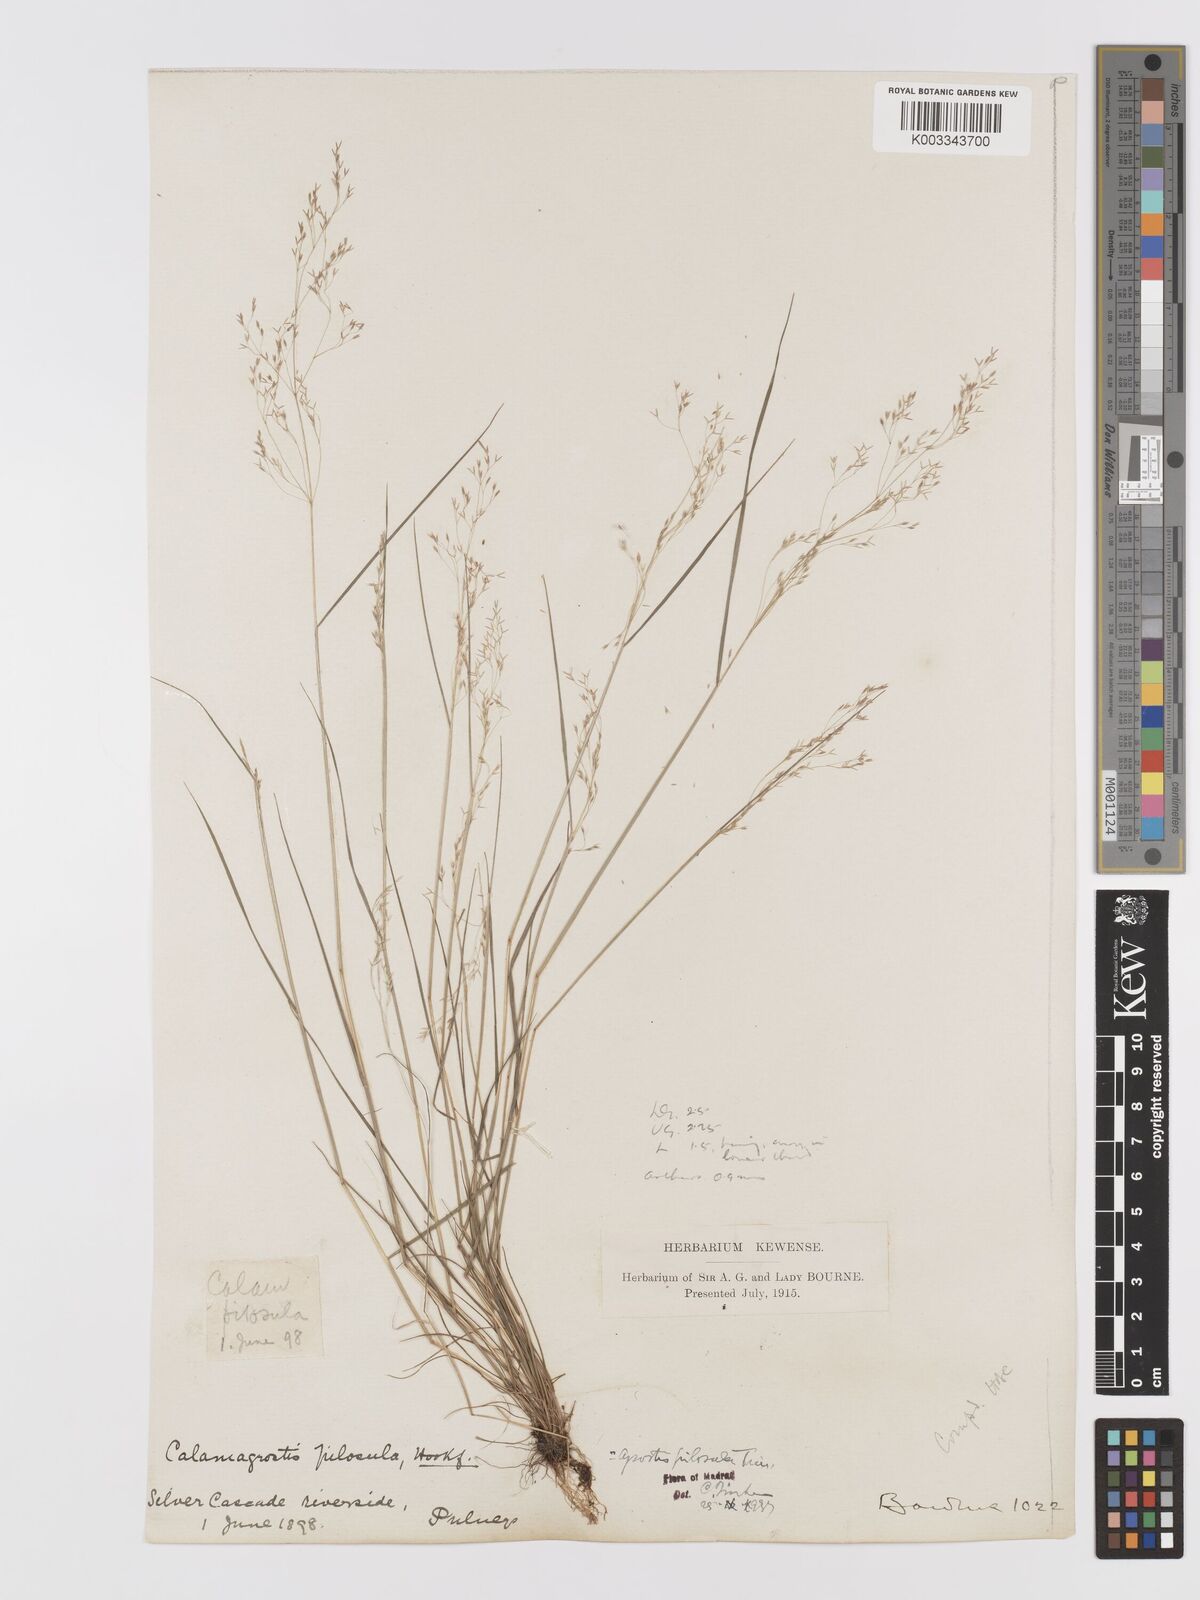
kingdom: Plantae
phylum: Tracheophyta
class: Liliopsida
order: Poales
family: Poaceae
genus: Agrostis
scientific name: Agrostis pilosula
